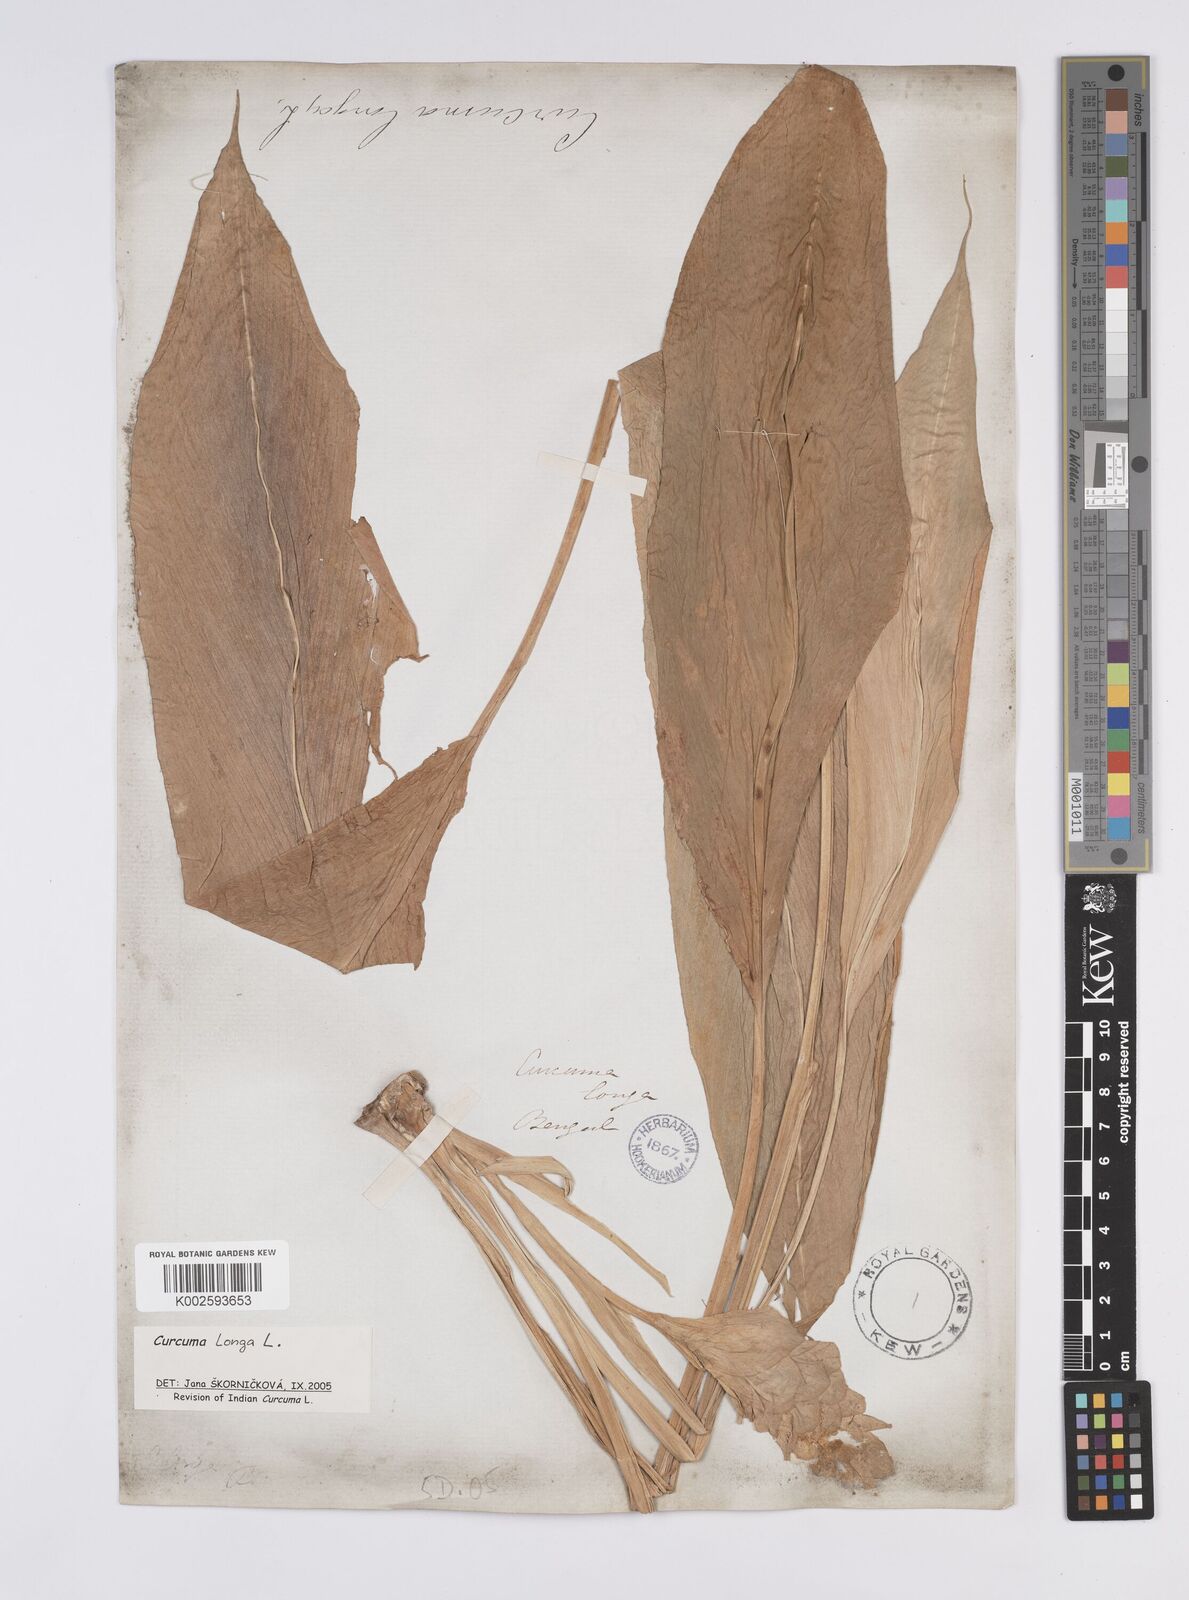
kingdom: Plantae
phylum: Tracheophyta
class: Liliopsida
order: Zingiberales
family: Zingiberaceae
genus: Curcuma
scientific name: Curcuma longa
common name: Turmeric
